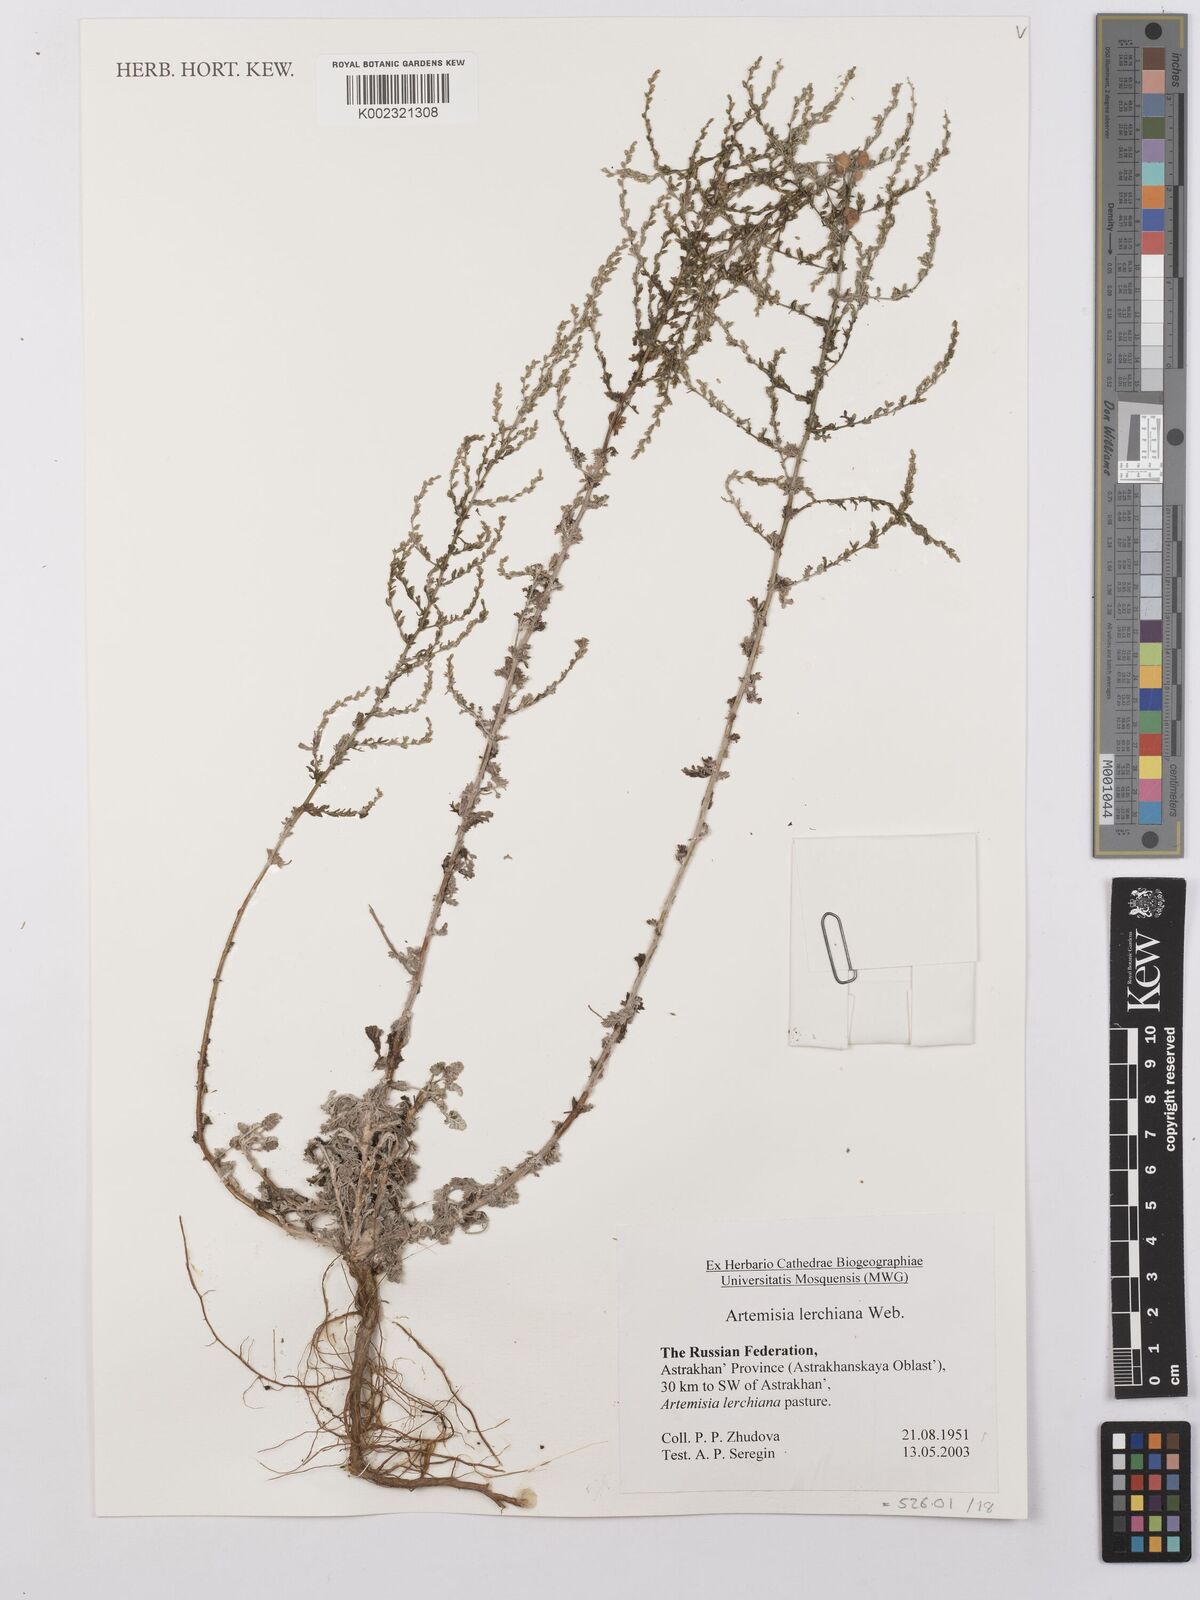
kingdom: Plantae
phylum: Tracheophyta
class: Magnoliopsida
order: Asterales
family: Asteraceae
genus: Artemisia
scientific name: Artemisia fragrans
